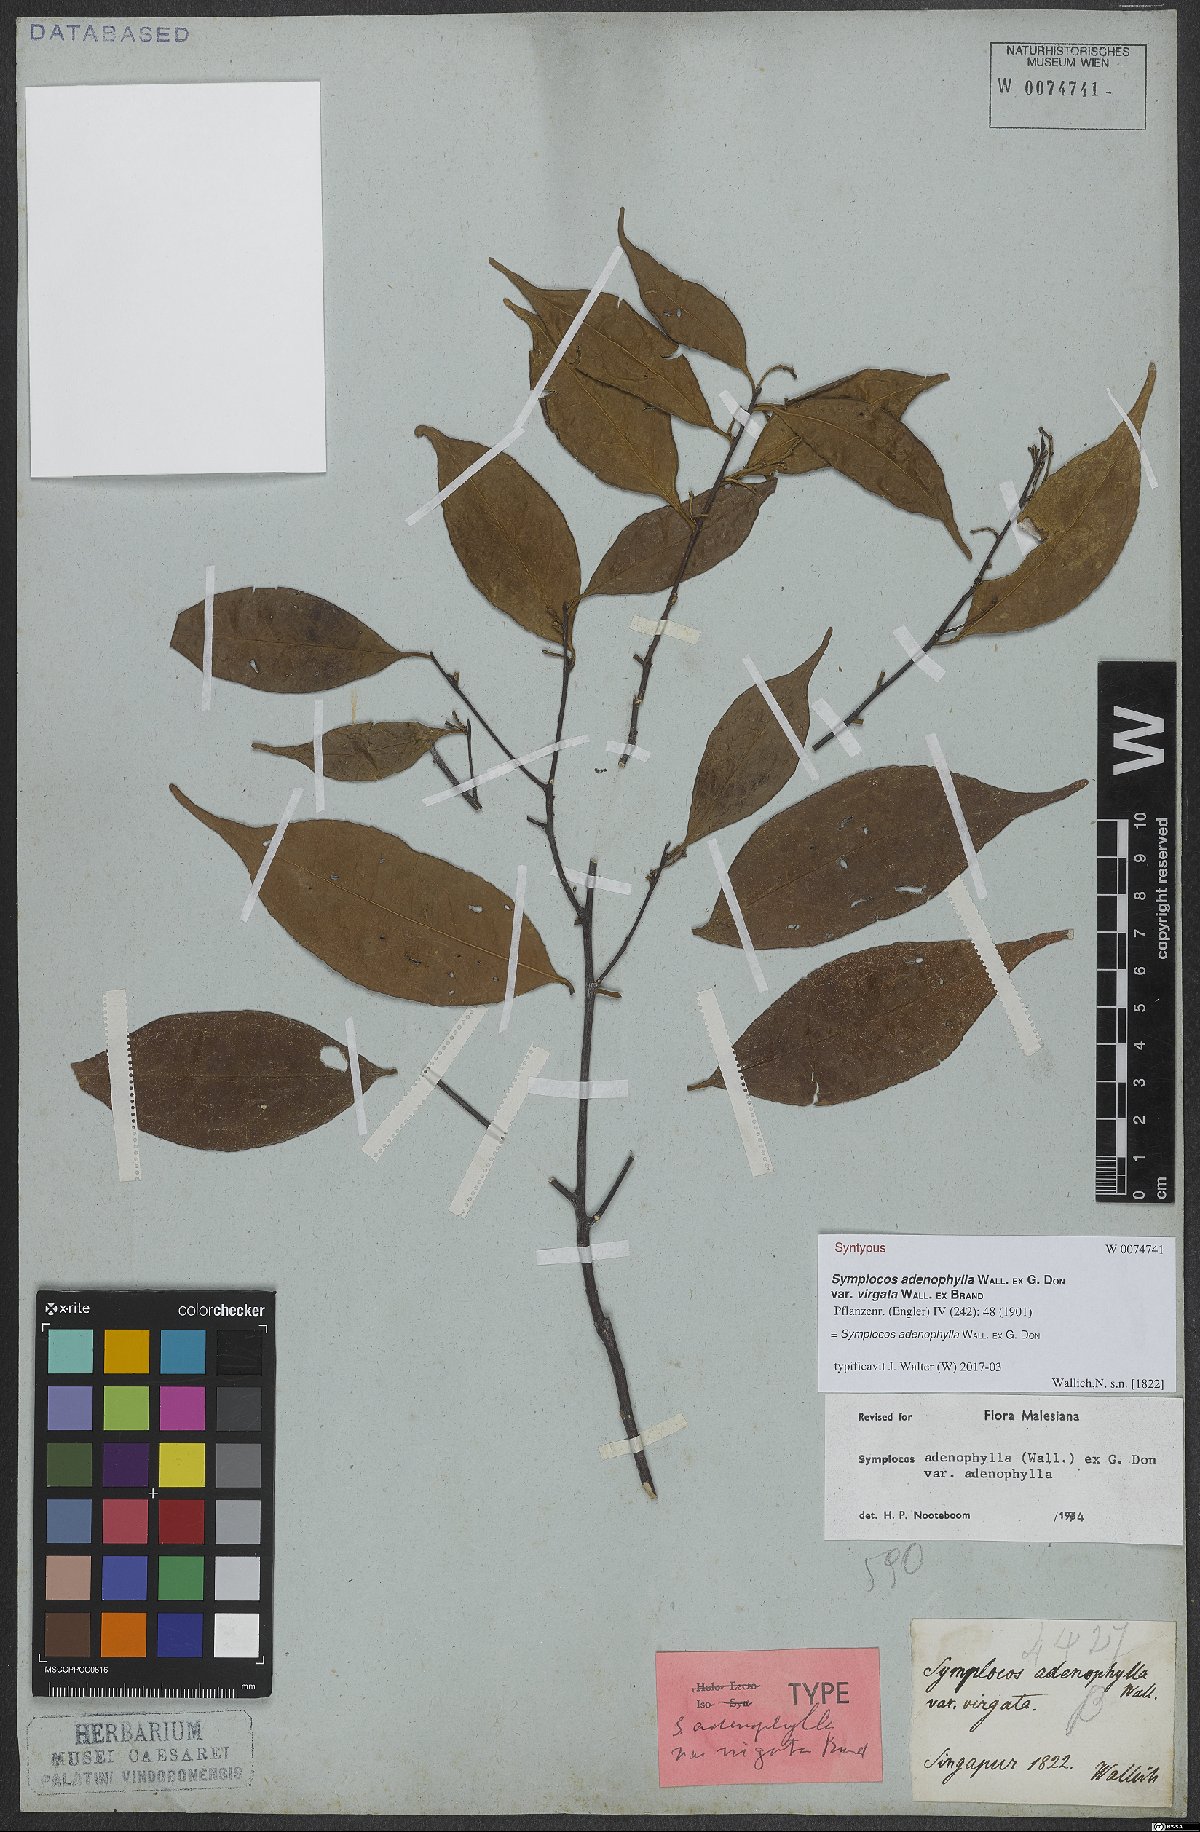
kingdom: Plantae
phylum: Tracheophyta
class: Magnoliopsida
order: Ericales
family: Symplocaceae
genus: Symplocos
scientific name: Symplocos adenophylla
